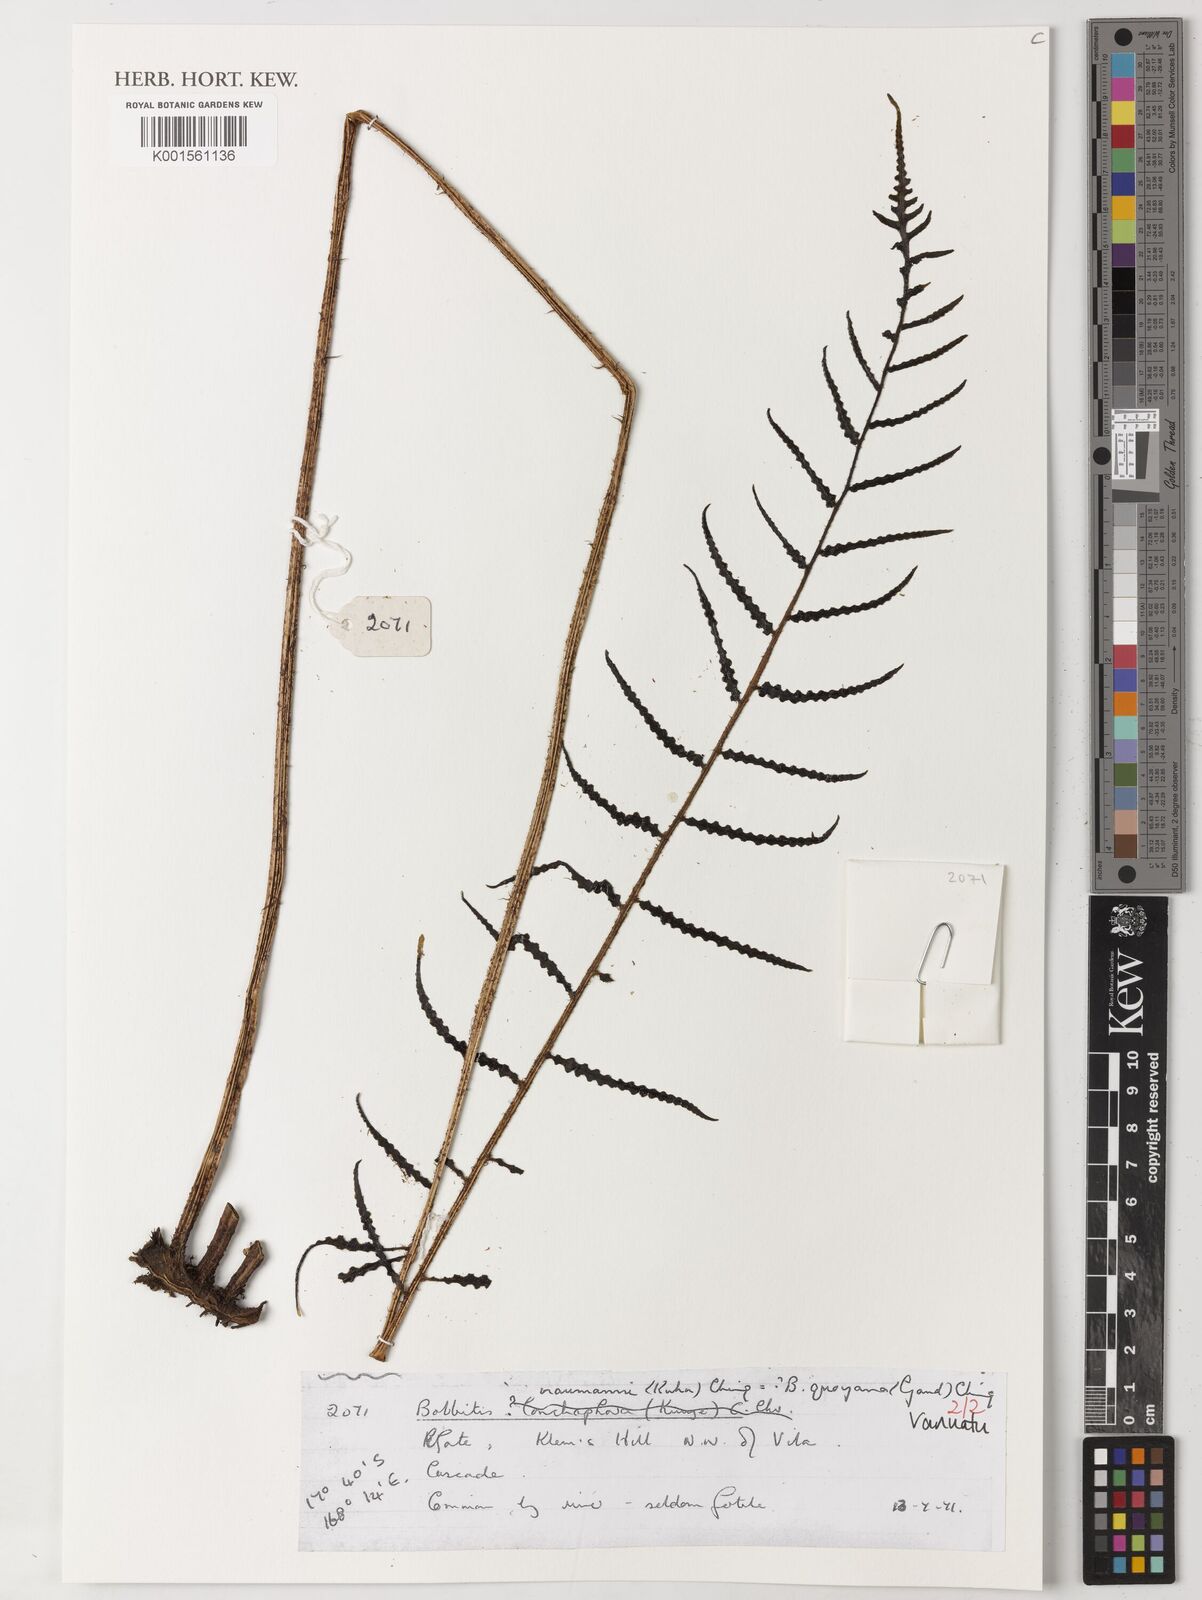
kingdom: Plantae
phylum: Tracheophyta
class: Polypodiopsida
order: Polypodiales
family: Dryopteridaceae
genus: Bolbitis
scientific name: Bolbitis quoyana
